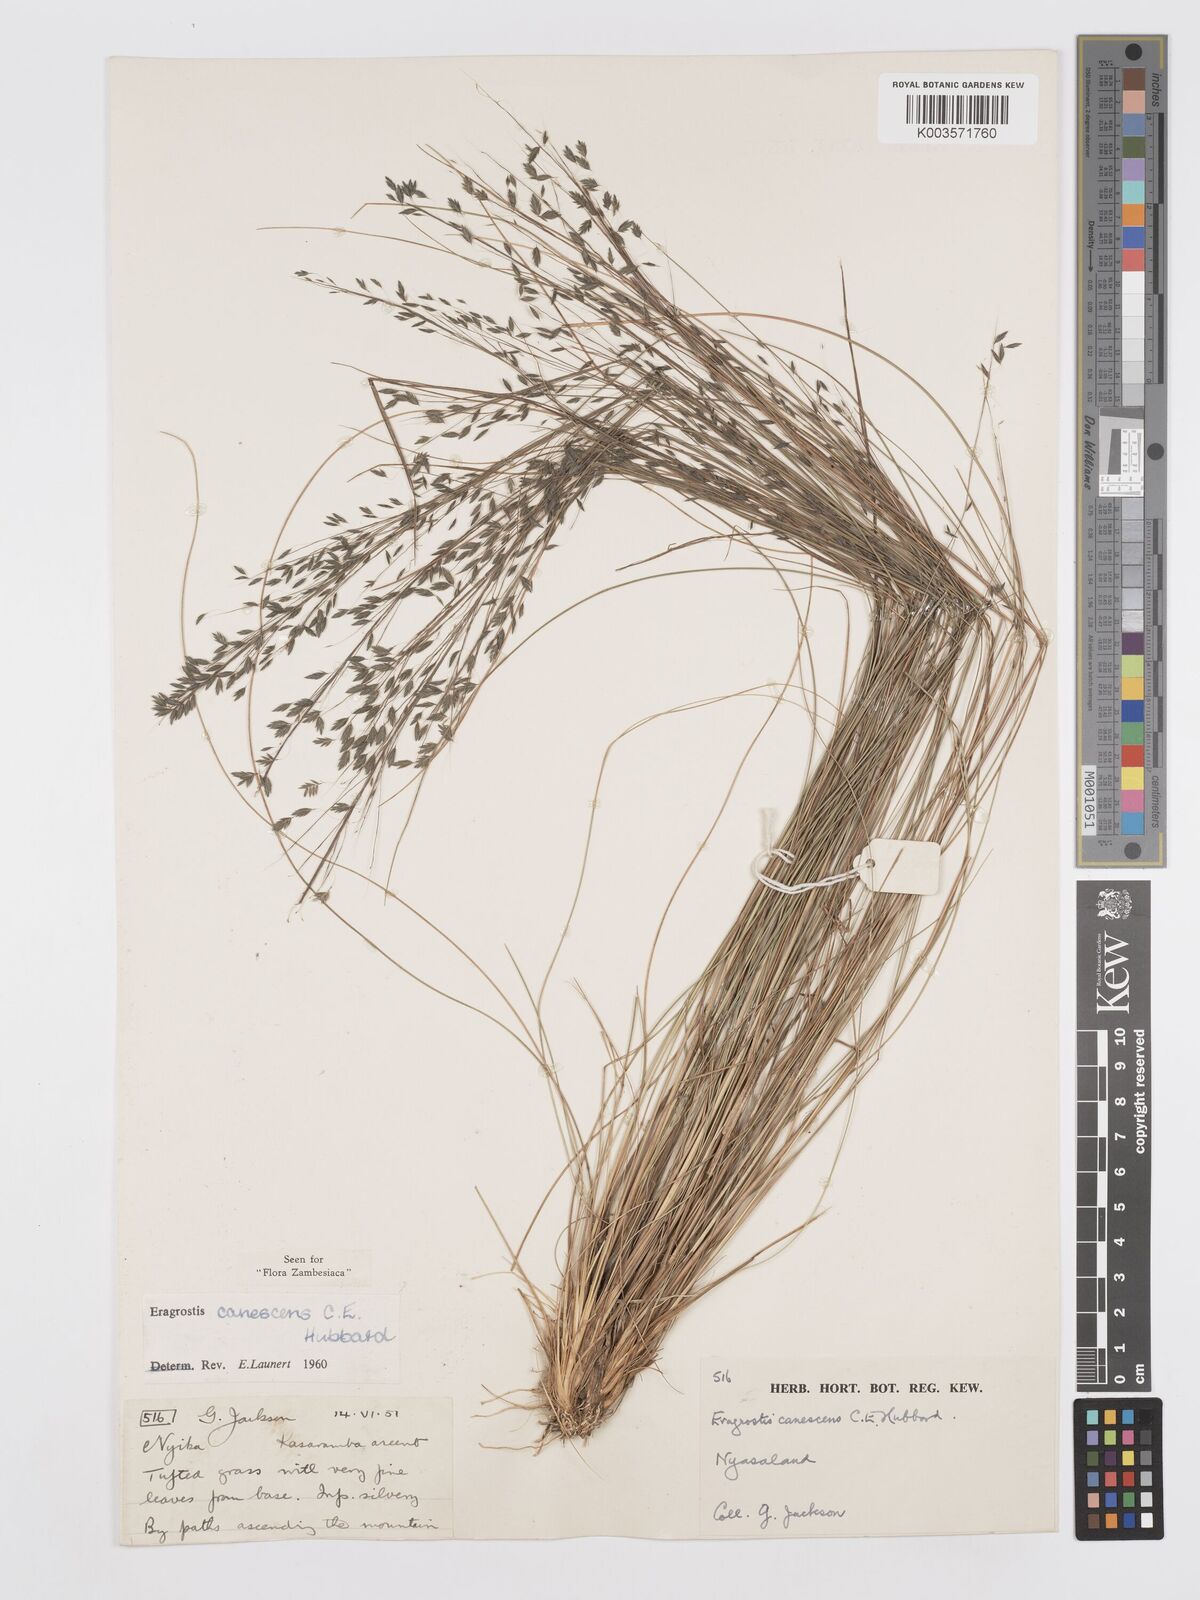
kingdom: Plantae
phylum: Tracheophyta
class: Liliopsida
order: Poales
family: Poaceae
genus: Eragrostis
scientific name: Eragrostis canescens
